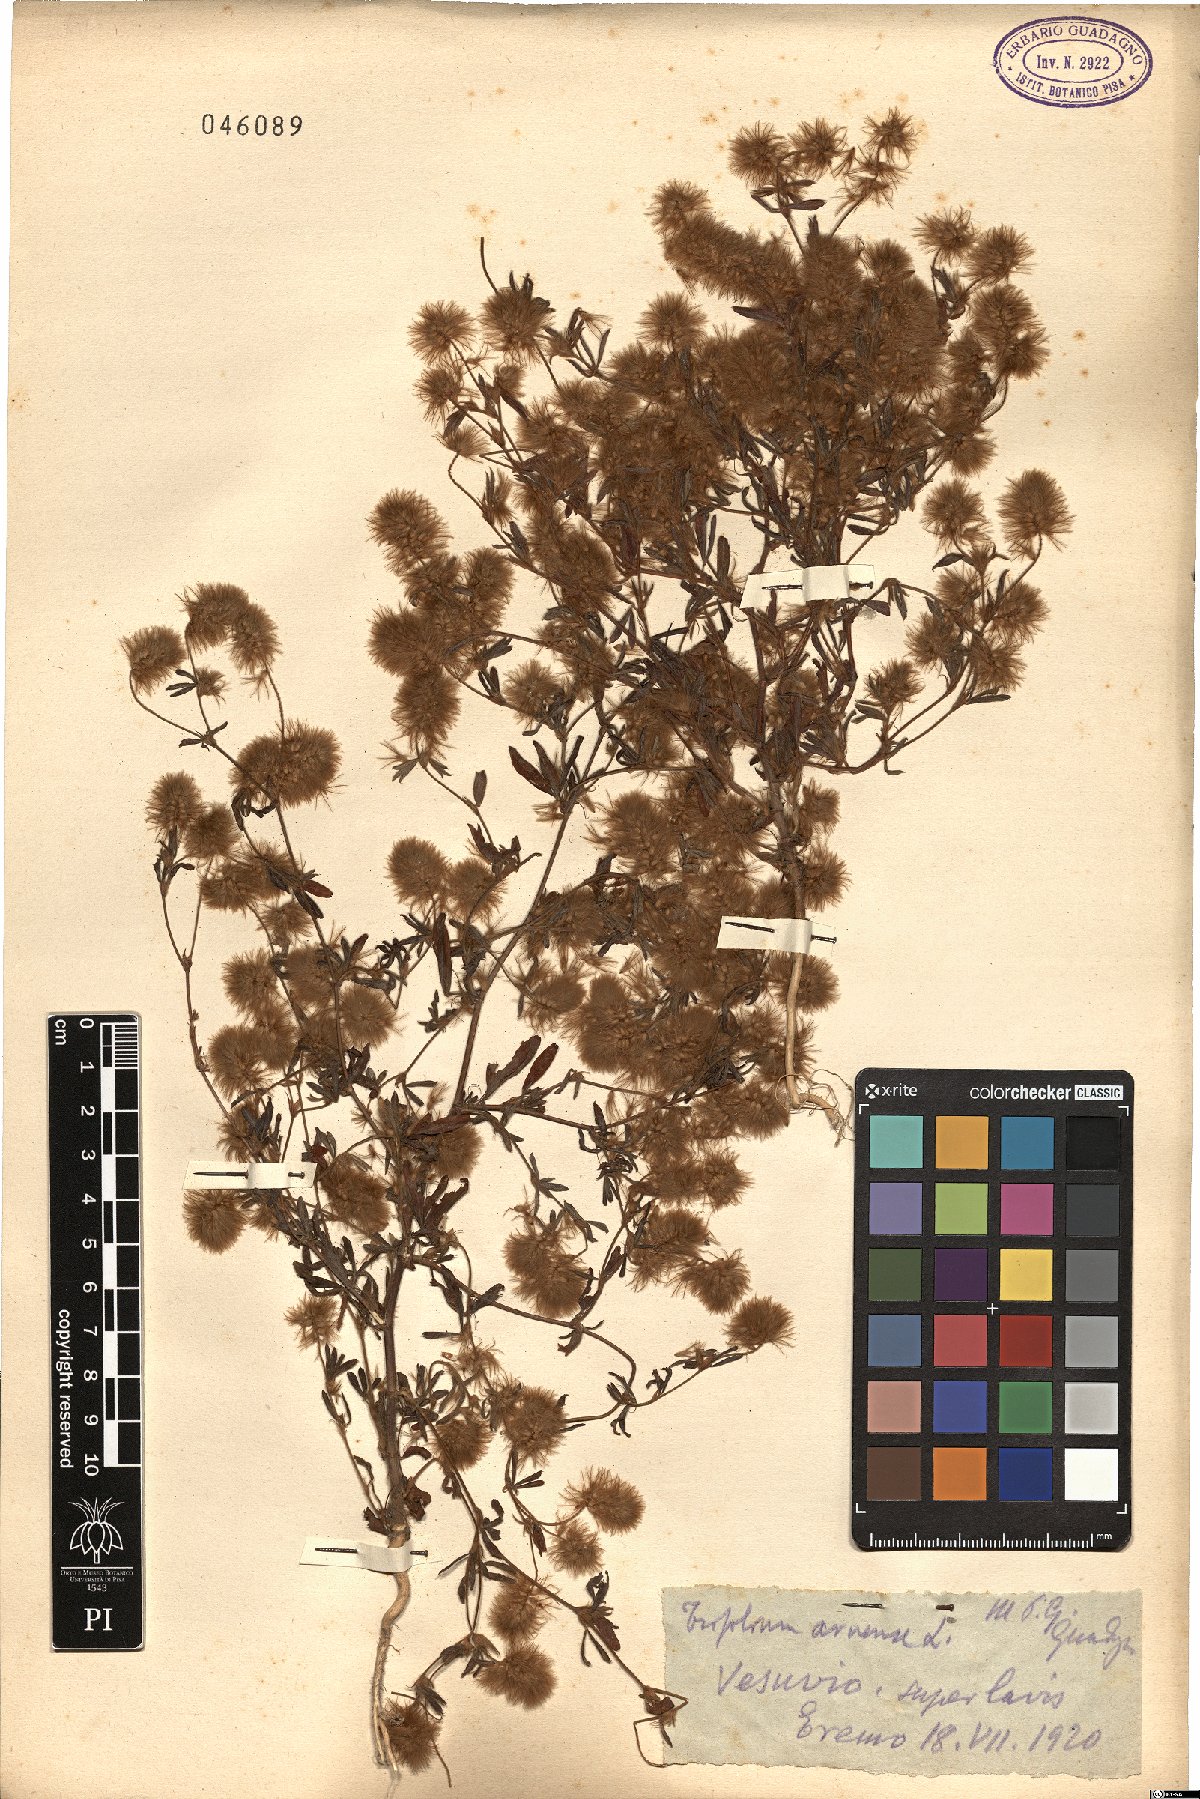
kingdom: Plantae
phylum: Tracheophyta
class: Magnoliopsida
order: Fabales
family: Fabaceae
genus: Trifolium
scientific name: Trifolium arvense
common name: Hare's-foot clover
